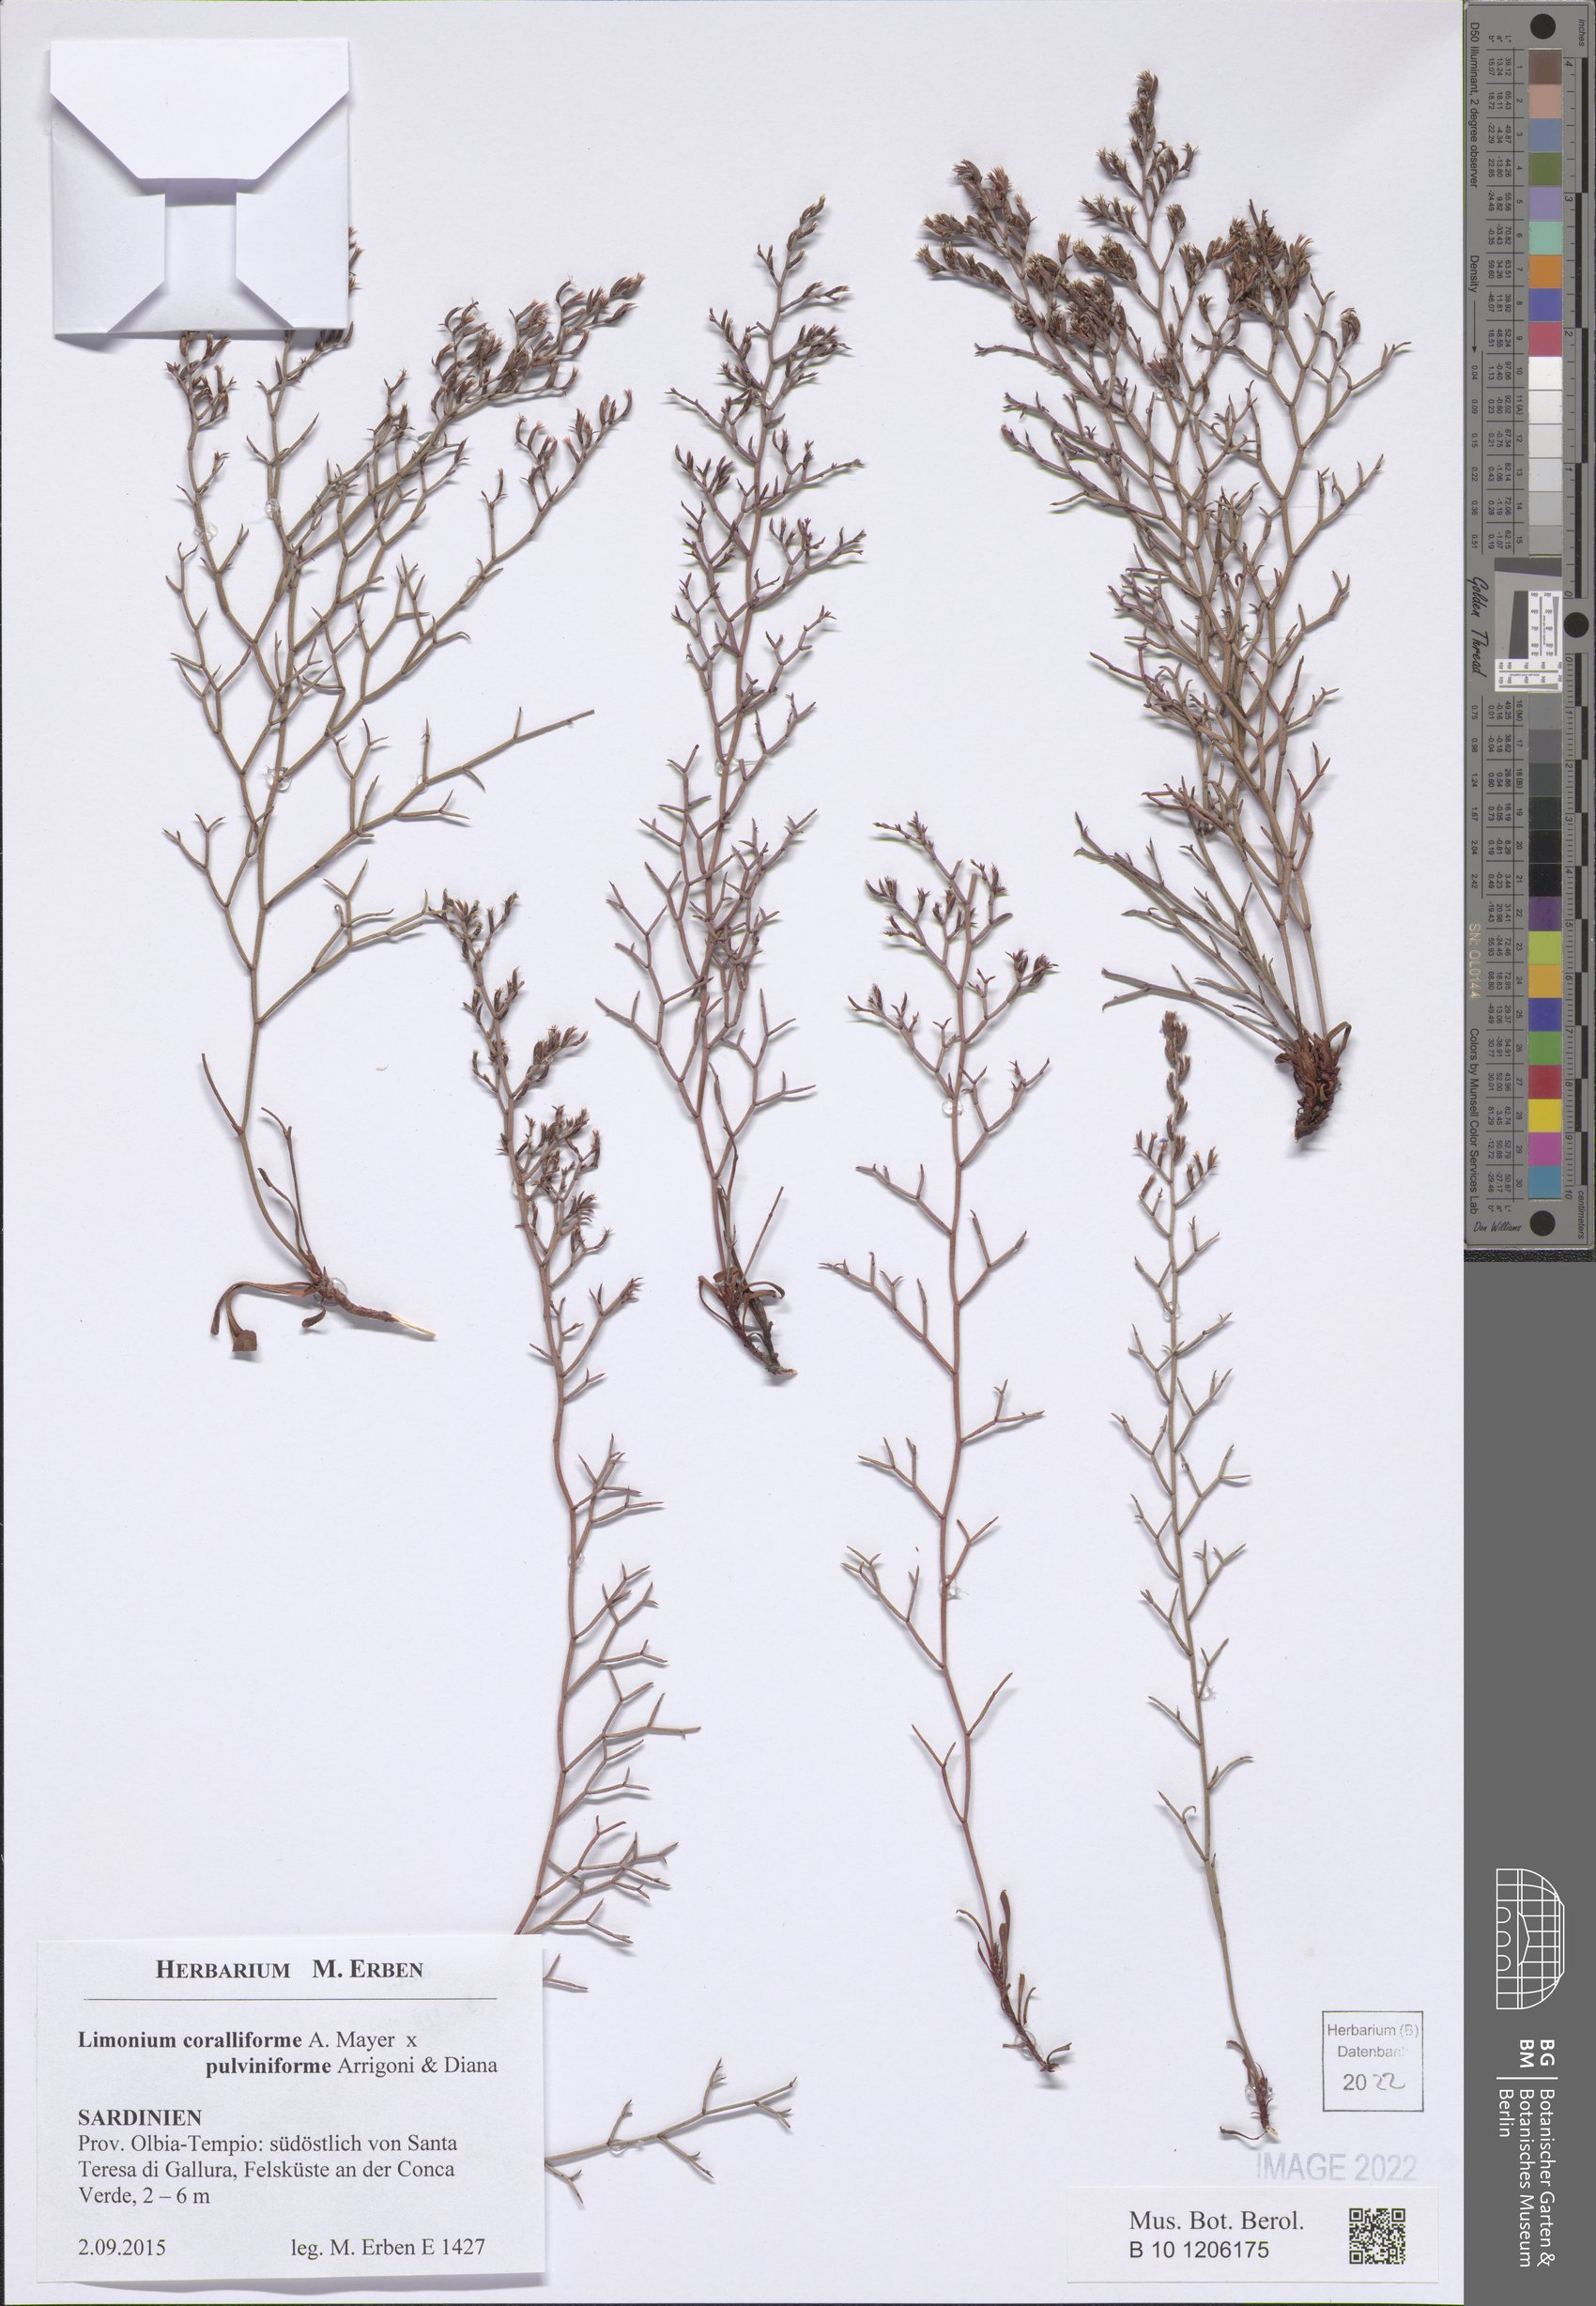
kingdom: Plantae
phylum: Tracheophyta
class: Magnoliopsida
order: Caryophyllales
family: Plumbaginaceae
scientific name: Plumbaginaceae
